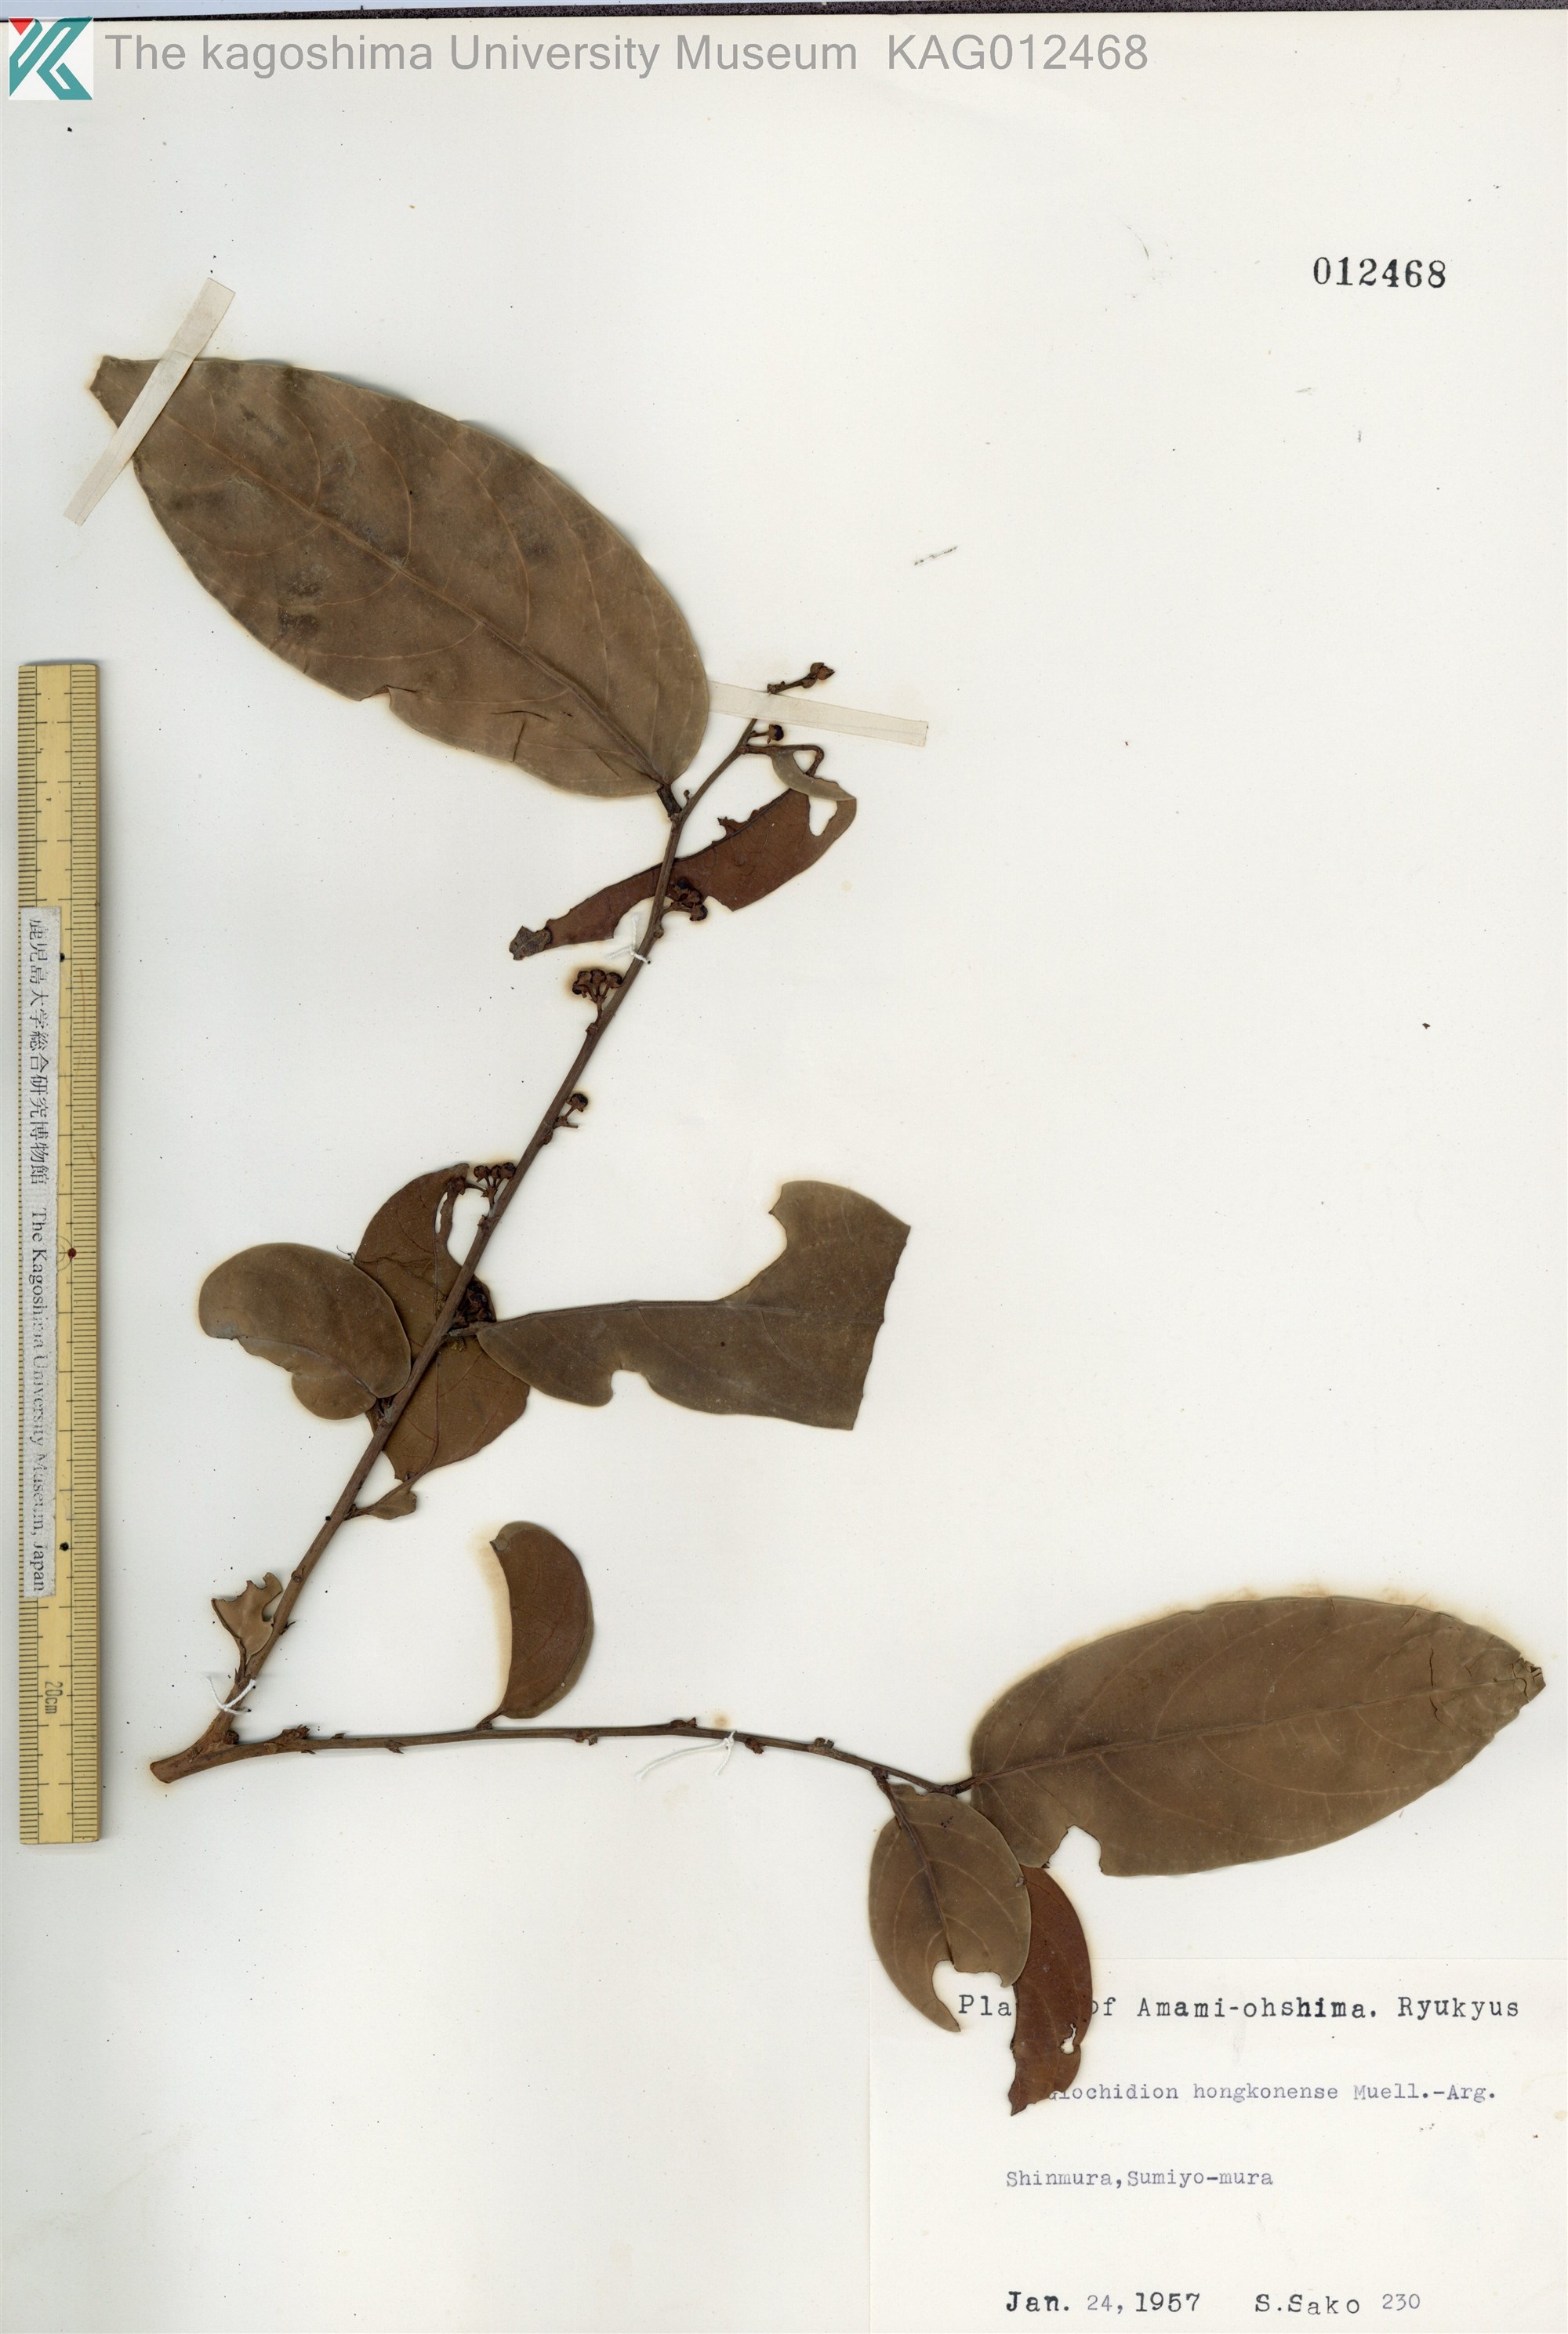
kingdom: Plantae
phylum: Tracheophyta
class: Magnoliopsida
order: Malpighiales
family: Phyllanthaceae
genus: Glochidion
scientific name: Glochidion zeylanicum
